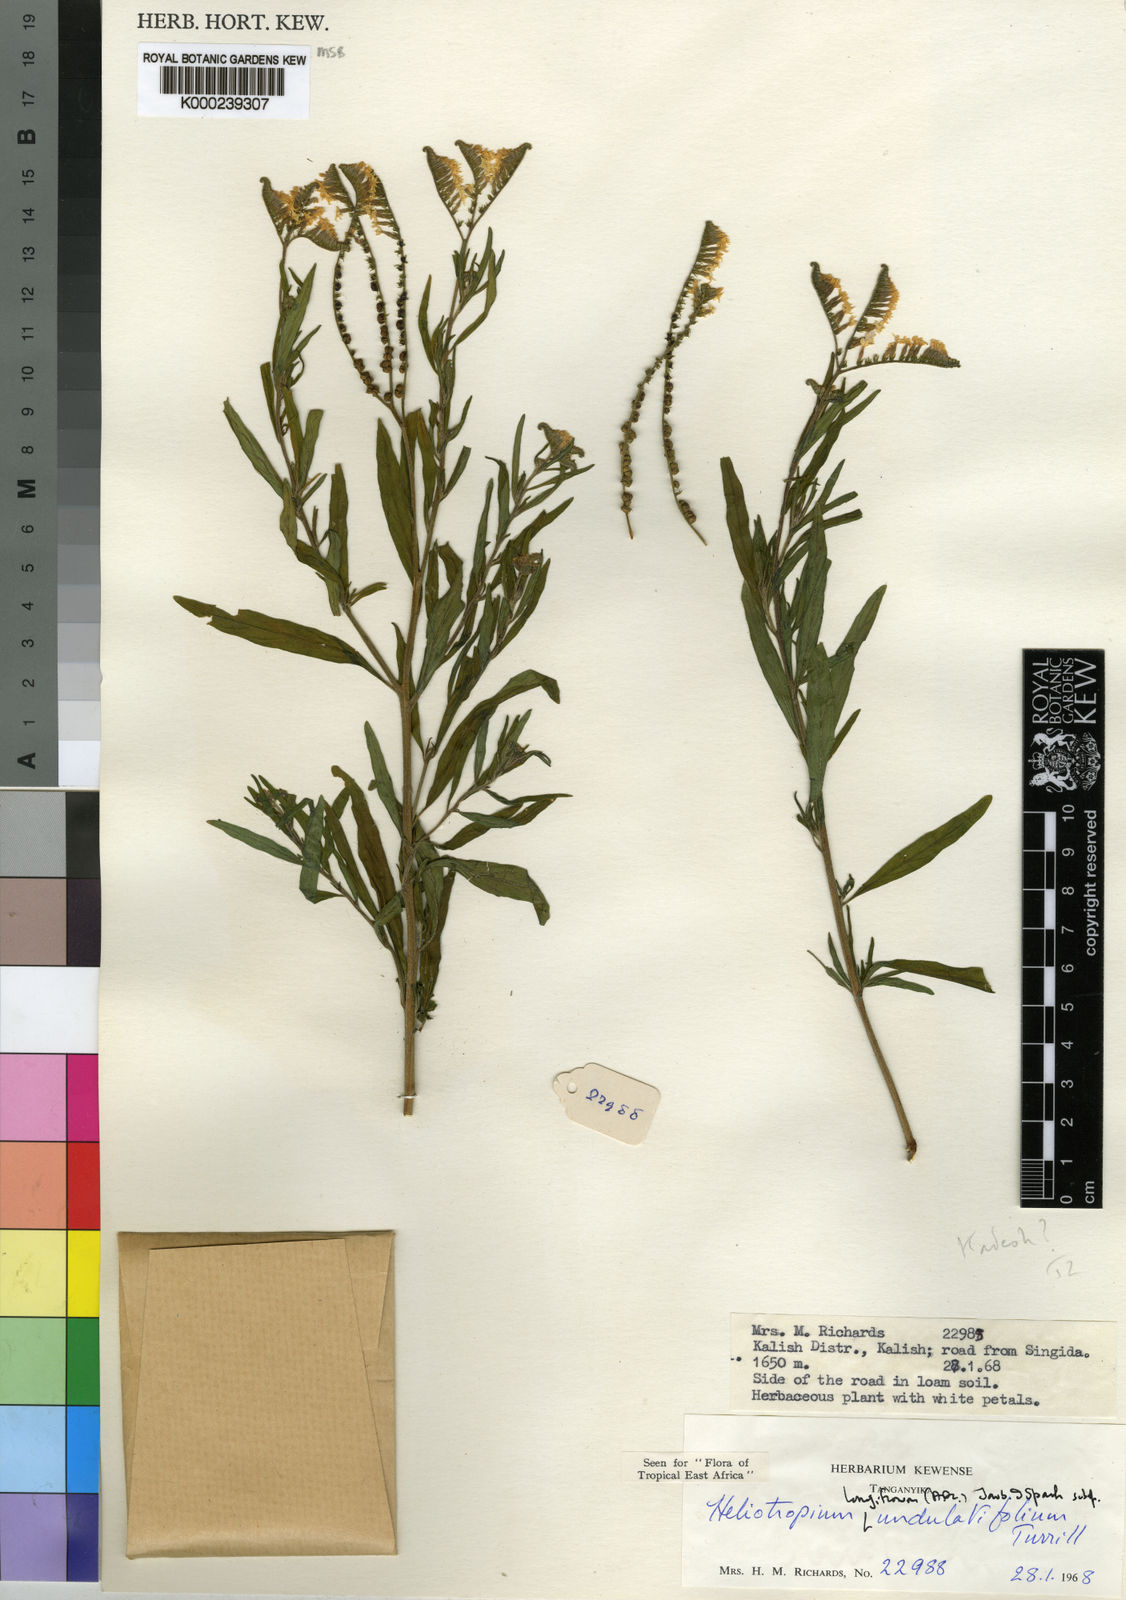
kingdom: Plantae
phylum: Tracheophyta
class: Magnoliopsida
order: Boraginales
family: Heliotropiaceae
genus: Heliotropium
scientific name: Heliotropium longiflorum
